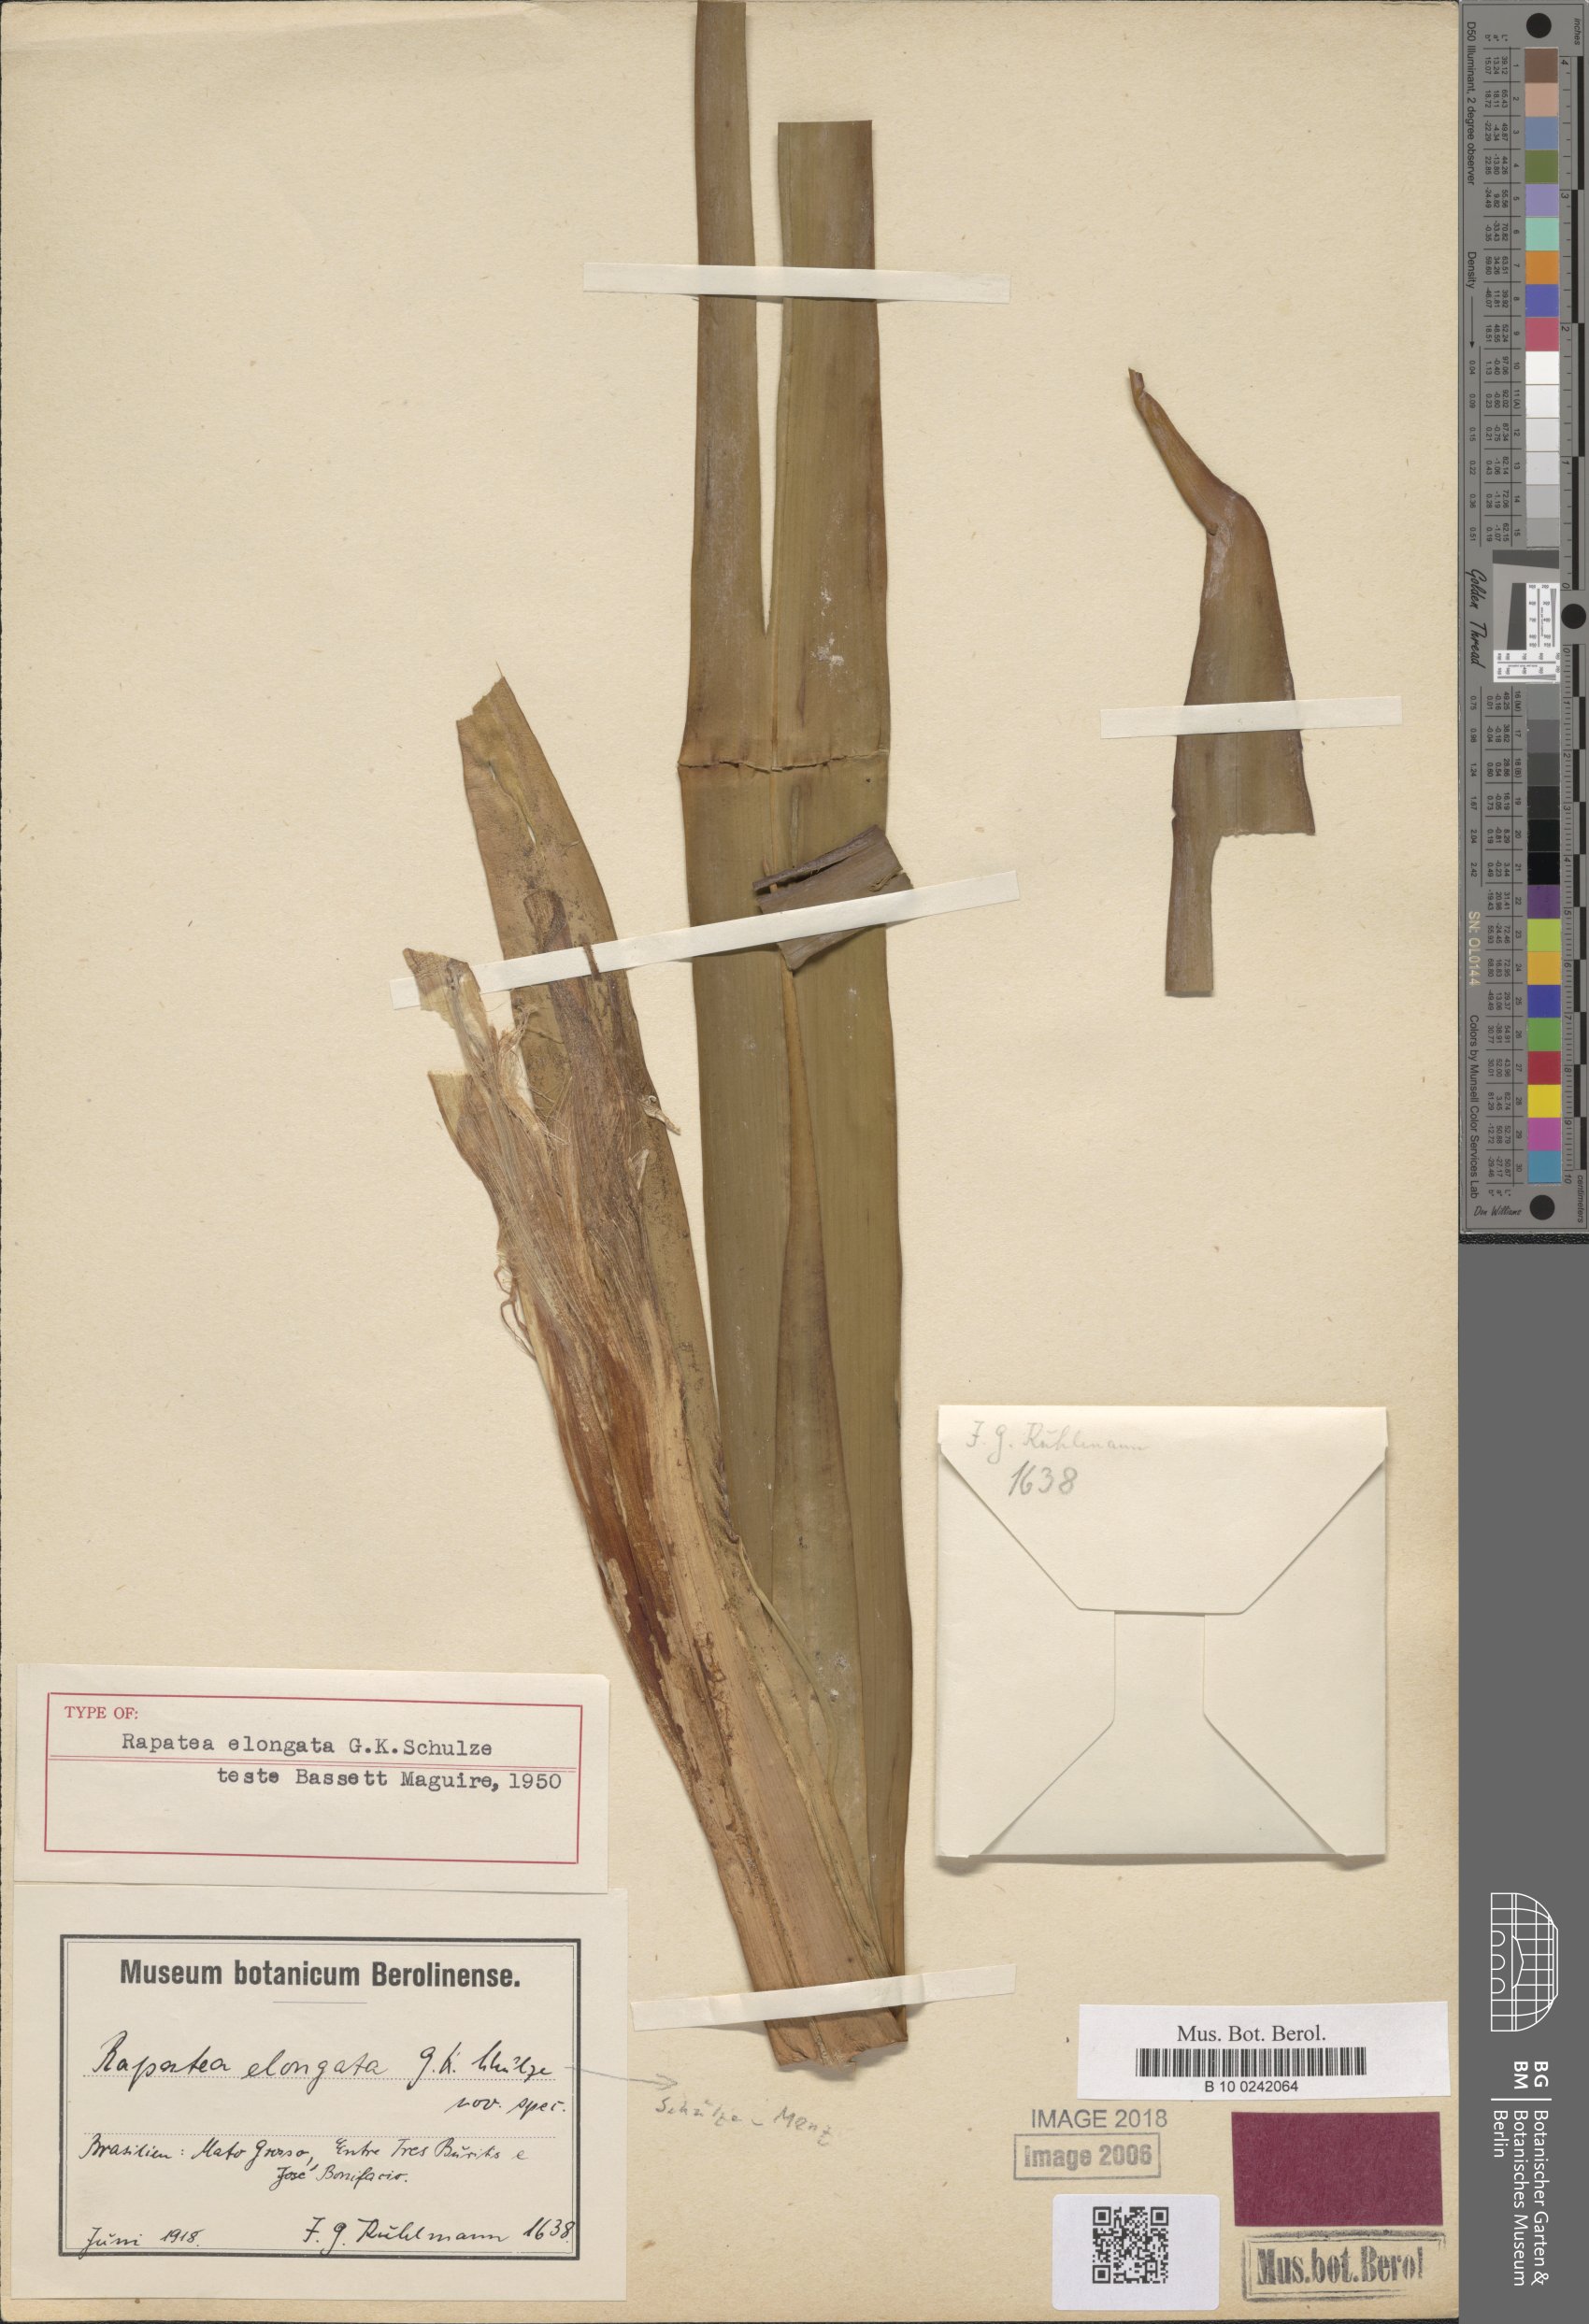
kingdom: Plantae
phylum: Tracheophyta
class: Liliopsida
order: Poales
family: Rapateaceae
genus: Rapatea
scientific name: Rapatea elongata
